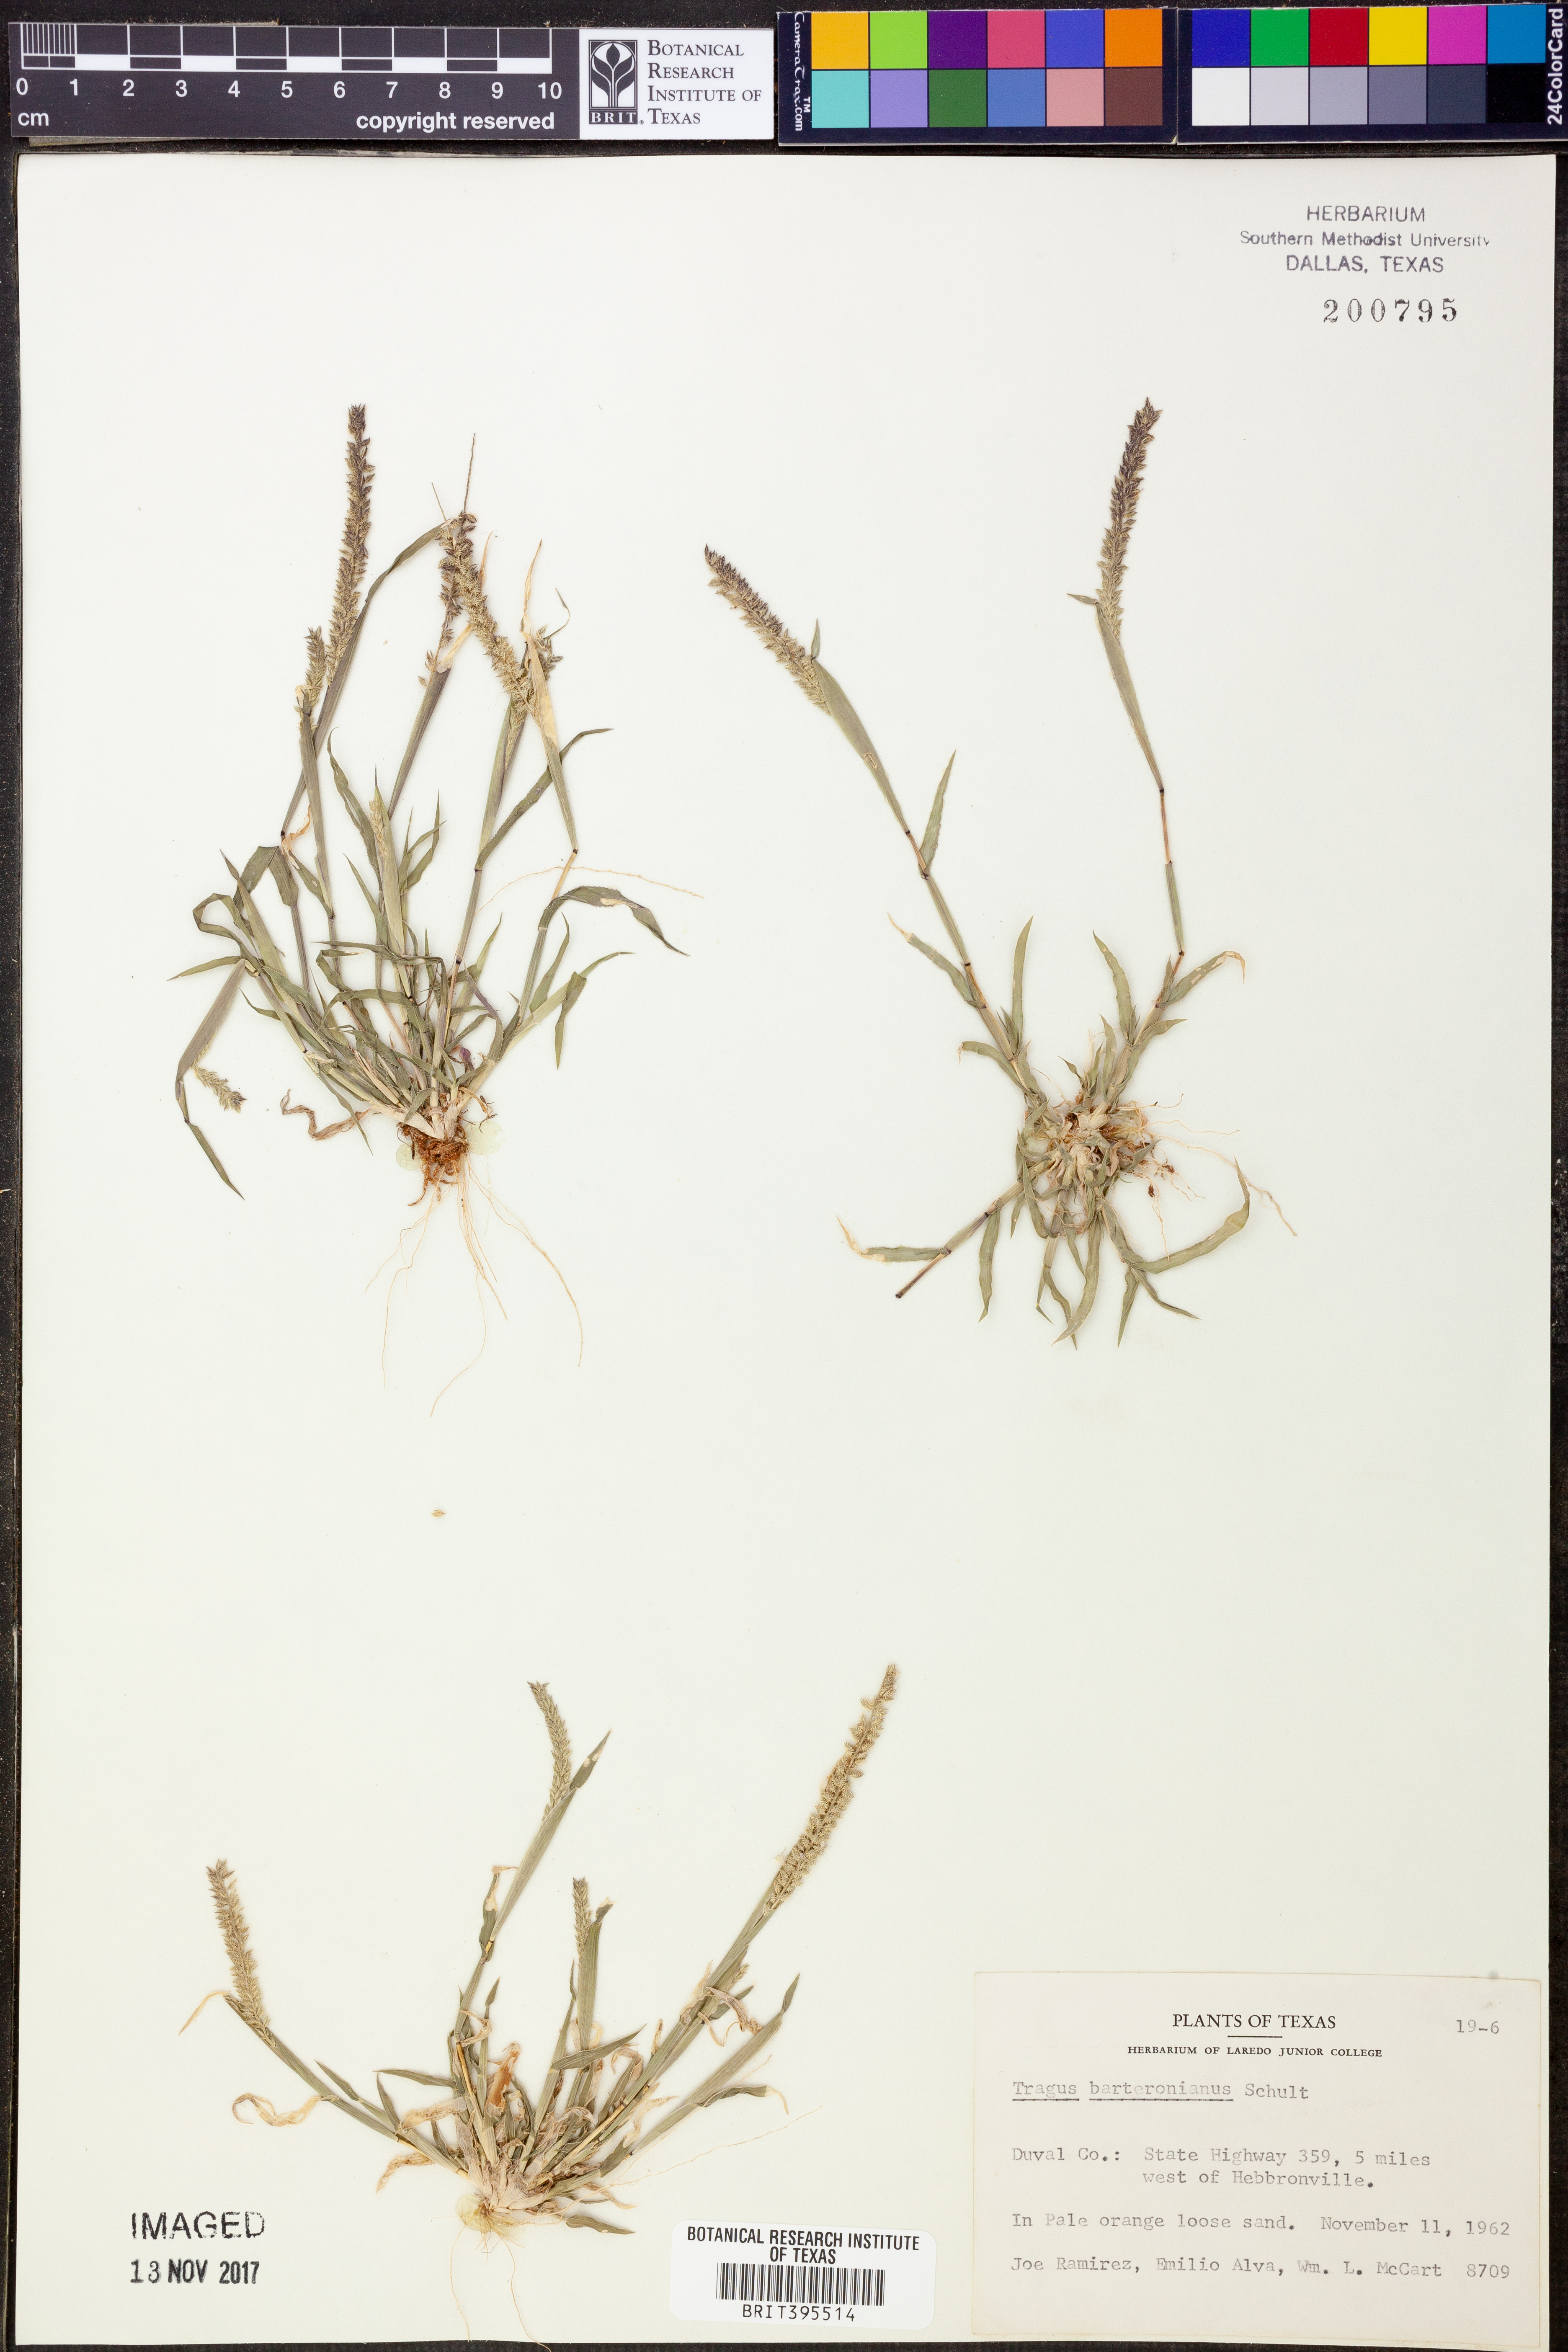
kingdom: Plantae
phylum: Tracheophyta
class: Liliopsida
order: Poales
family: Poaceae
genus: Tragus
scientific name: Tragus berteronianus
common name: African bur-grass
